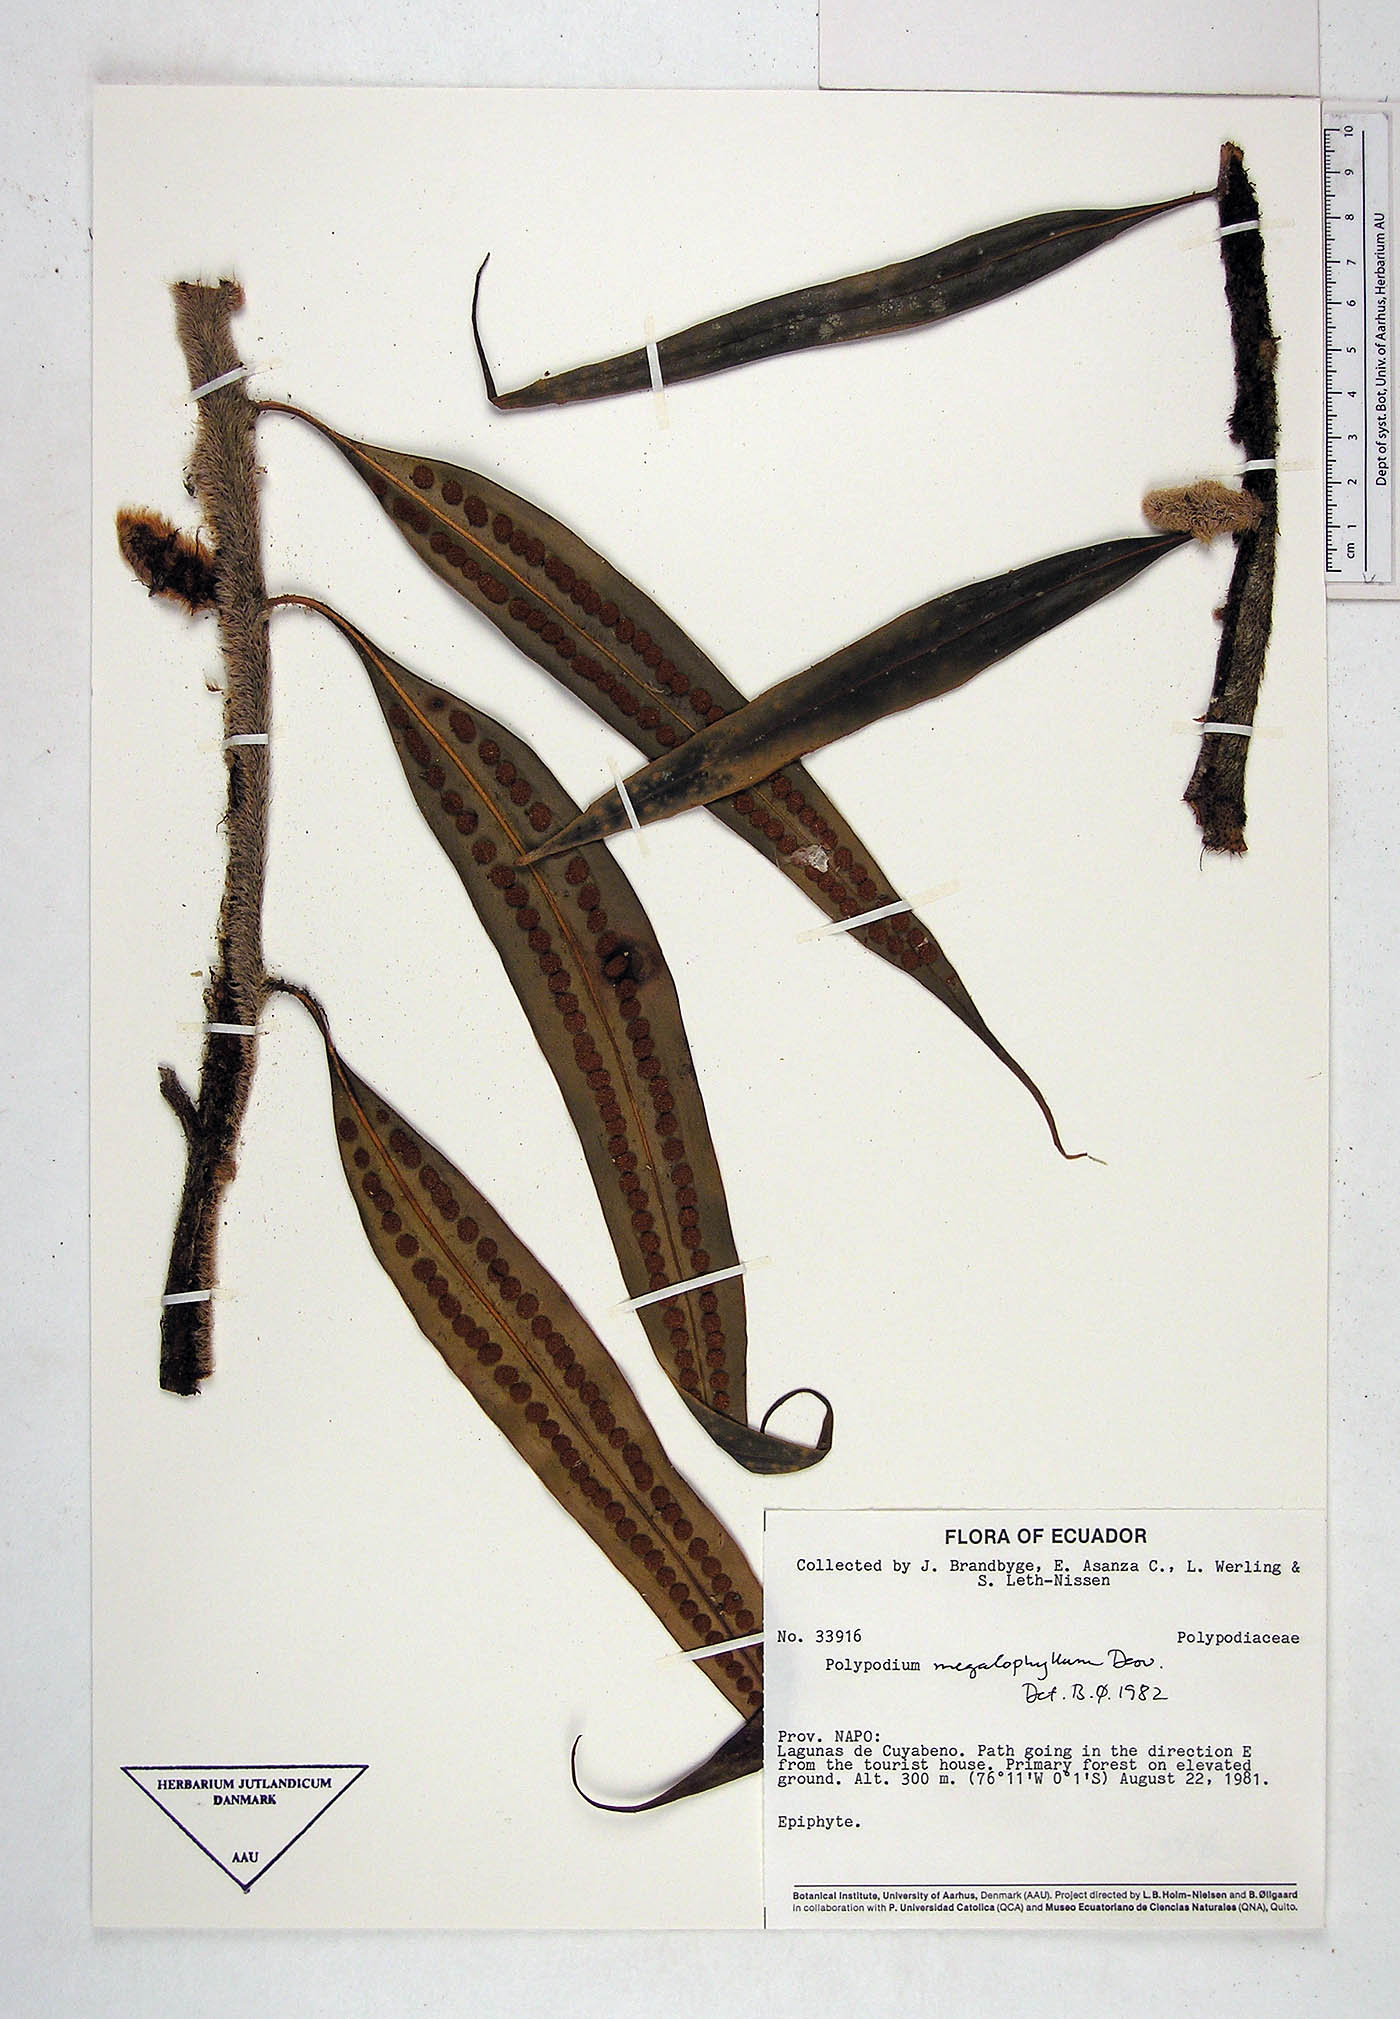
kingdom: Plantae
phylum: Tracheophyta
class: Polypodiopsida
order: Polypodiales
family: Polypodiaceae
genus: Microgramma
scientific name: Microgramma megalophylla
